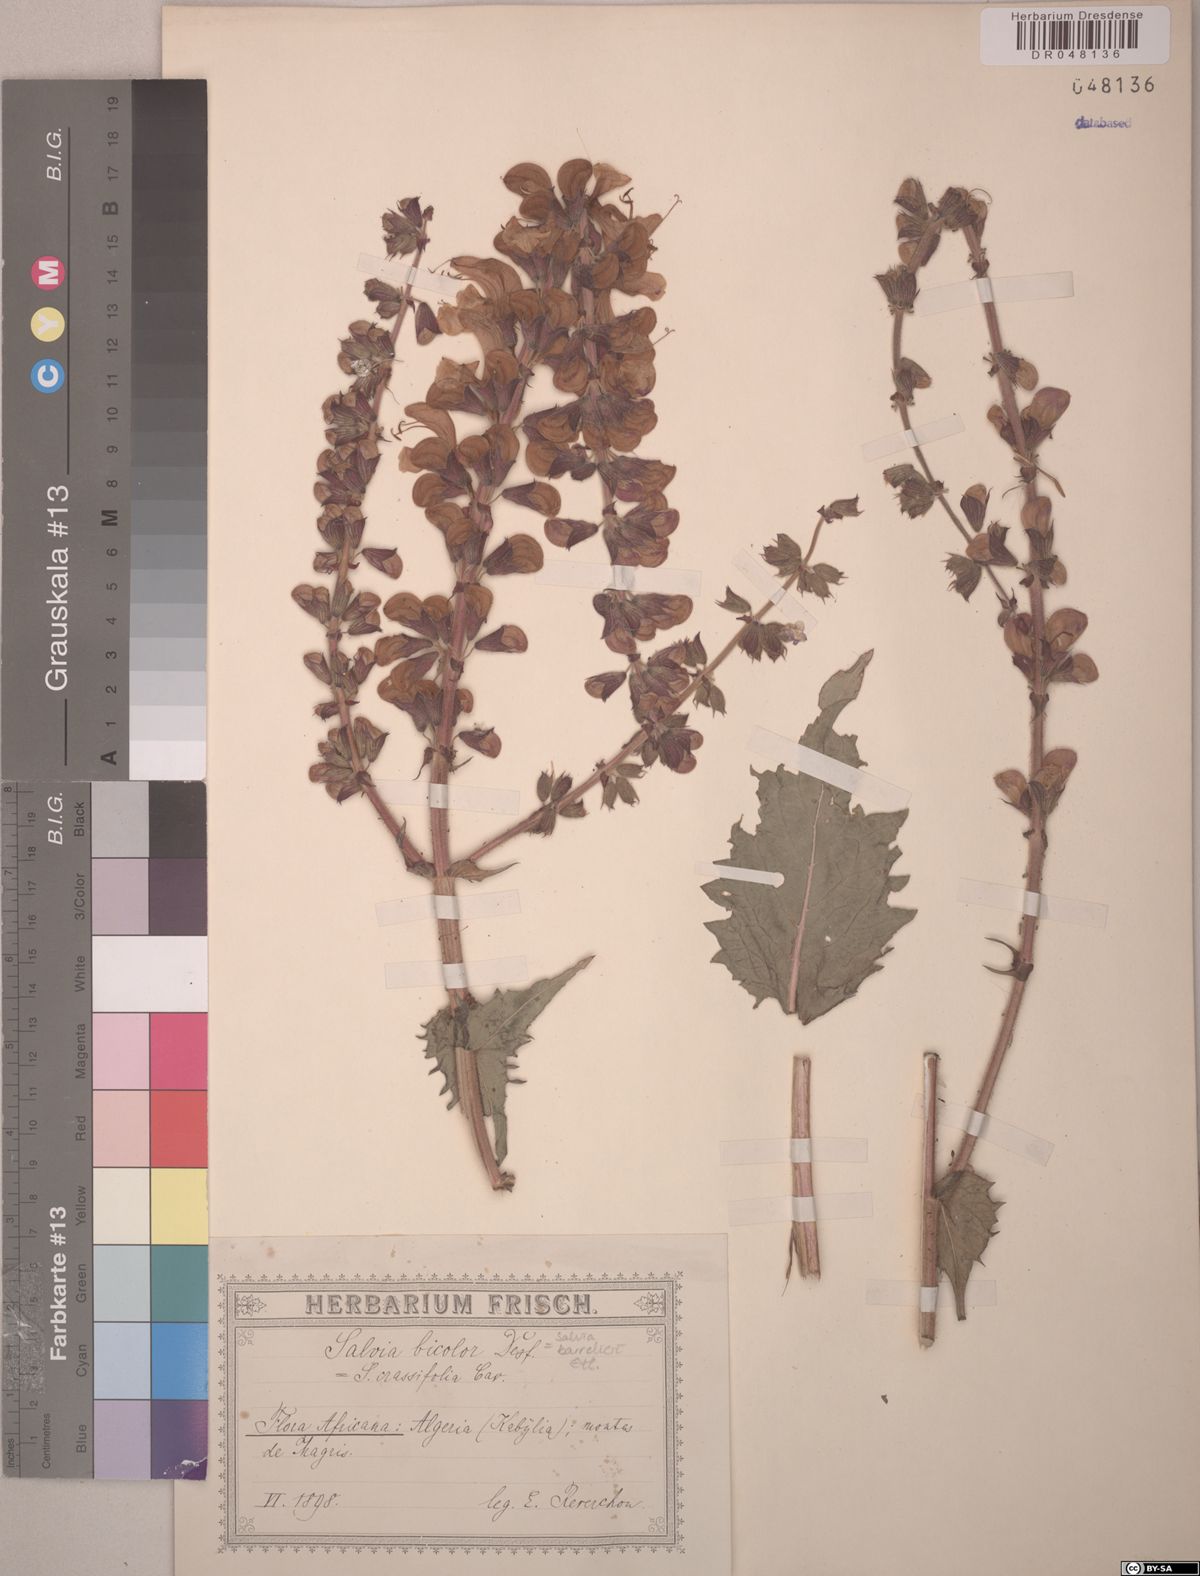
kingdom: Plantae
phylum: Tracheophyta
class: Magnoliopsida
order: Lamiales
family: Lamiaceae
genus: Salvia
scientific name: Salvia barrelieri
